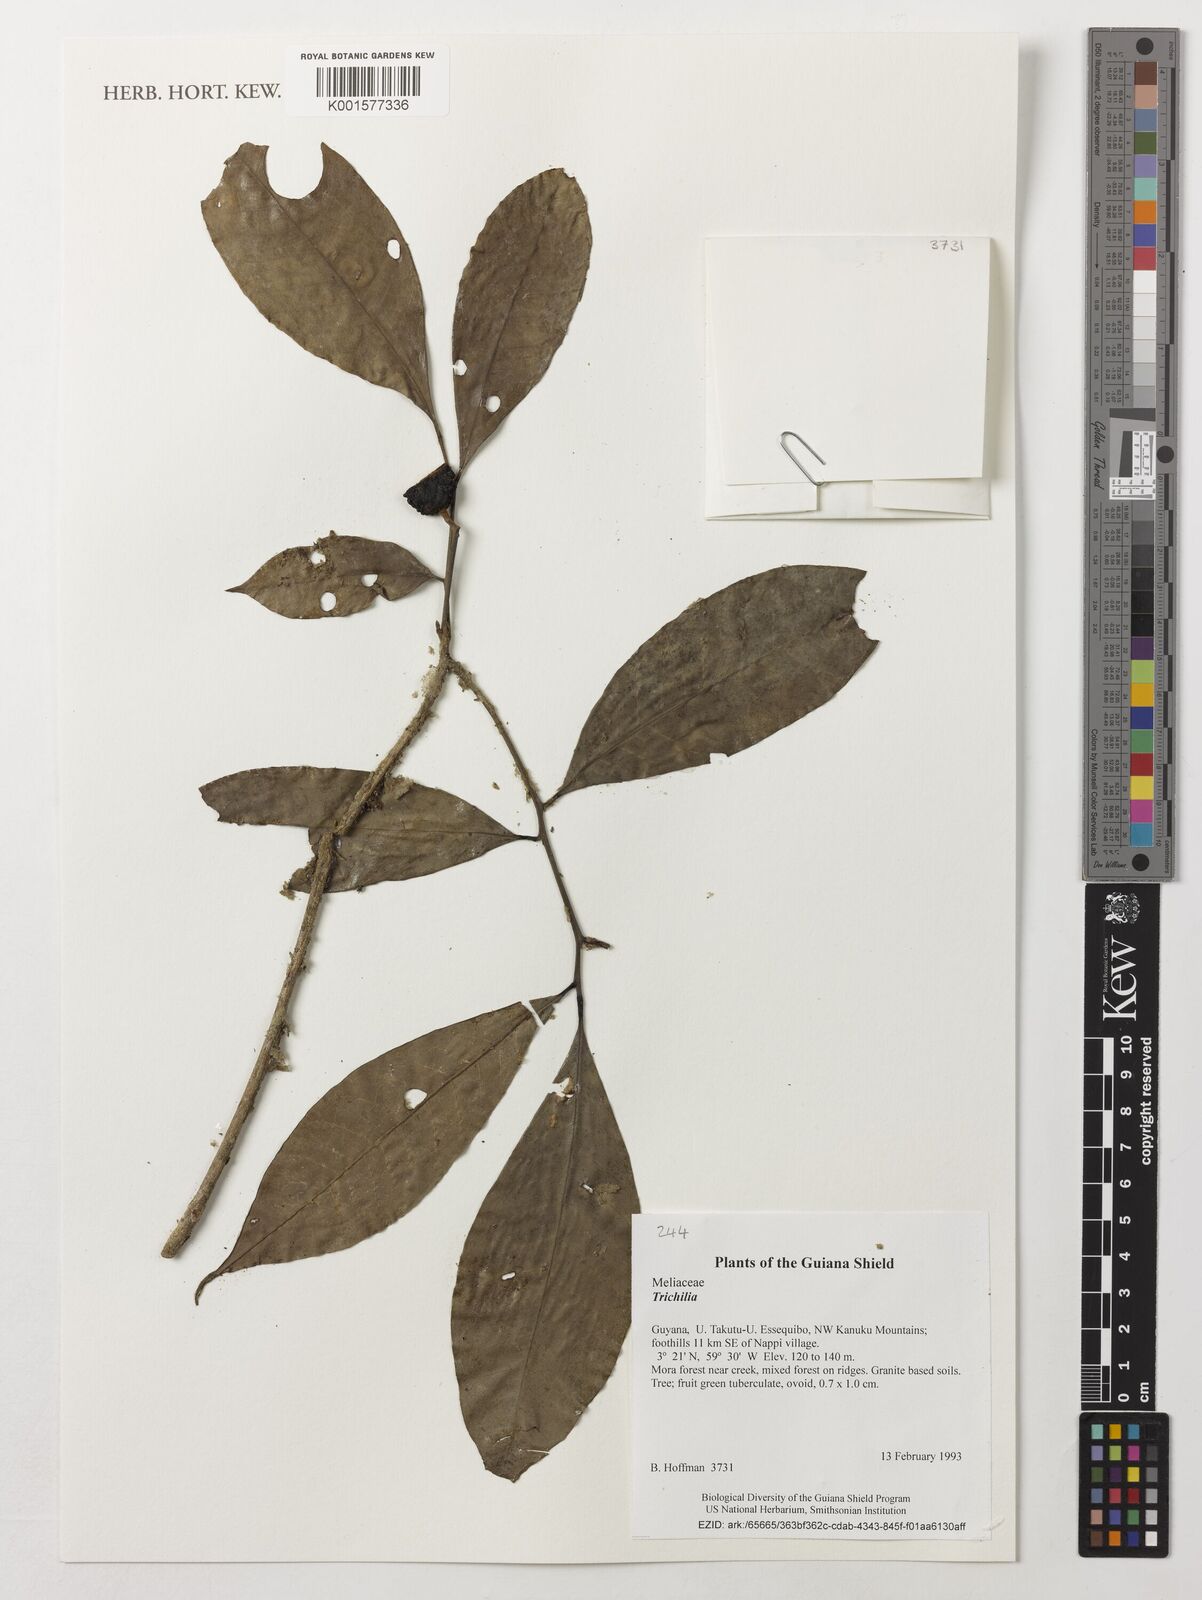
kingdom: Plantae
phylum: Tracheophyta
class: Magnoliopsida
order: Sapindales
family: Meliaceae
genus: Trichilia
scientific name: Trichilia
